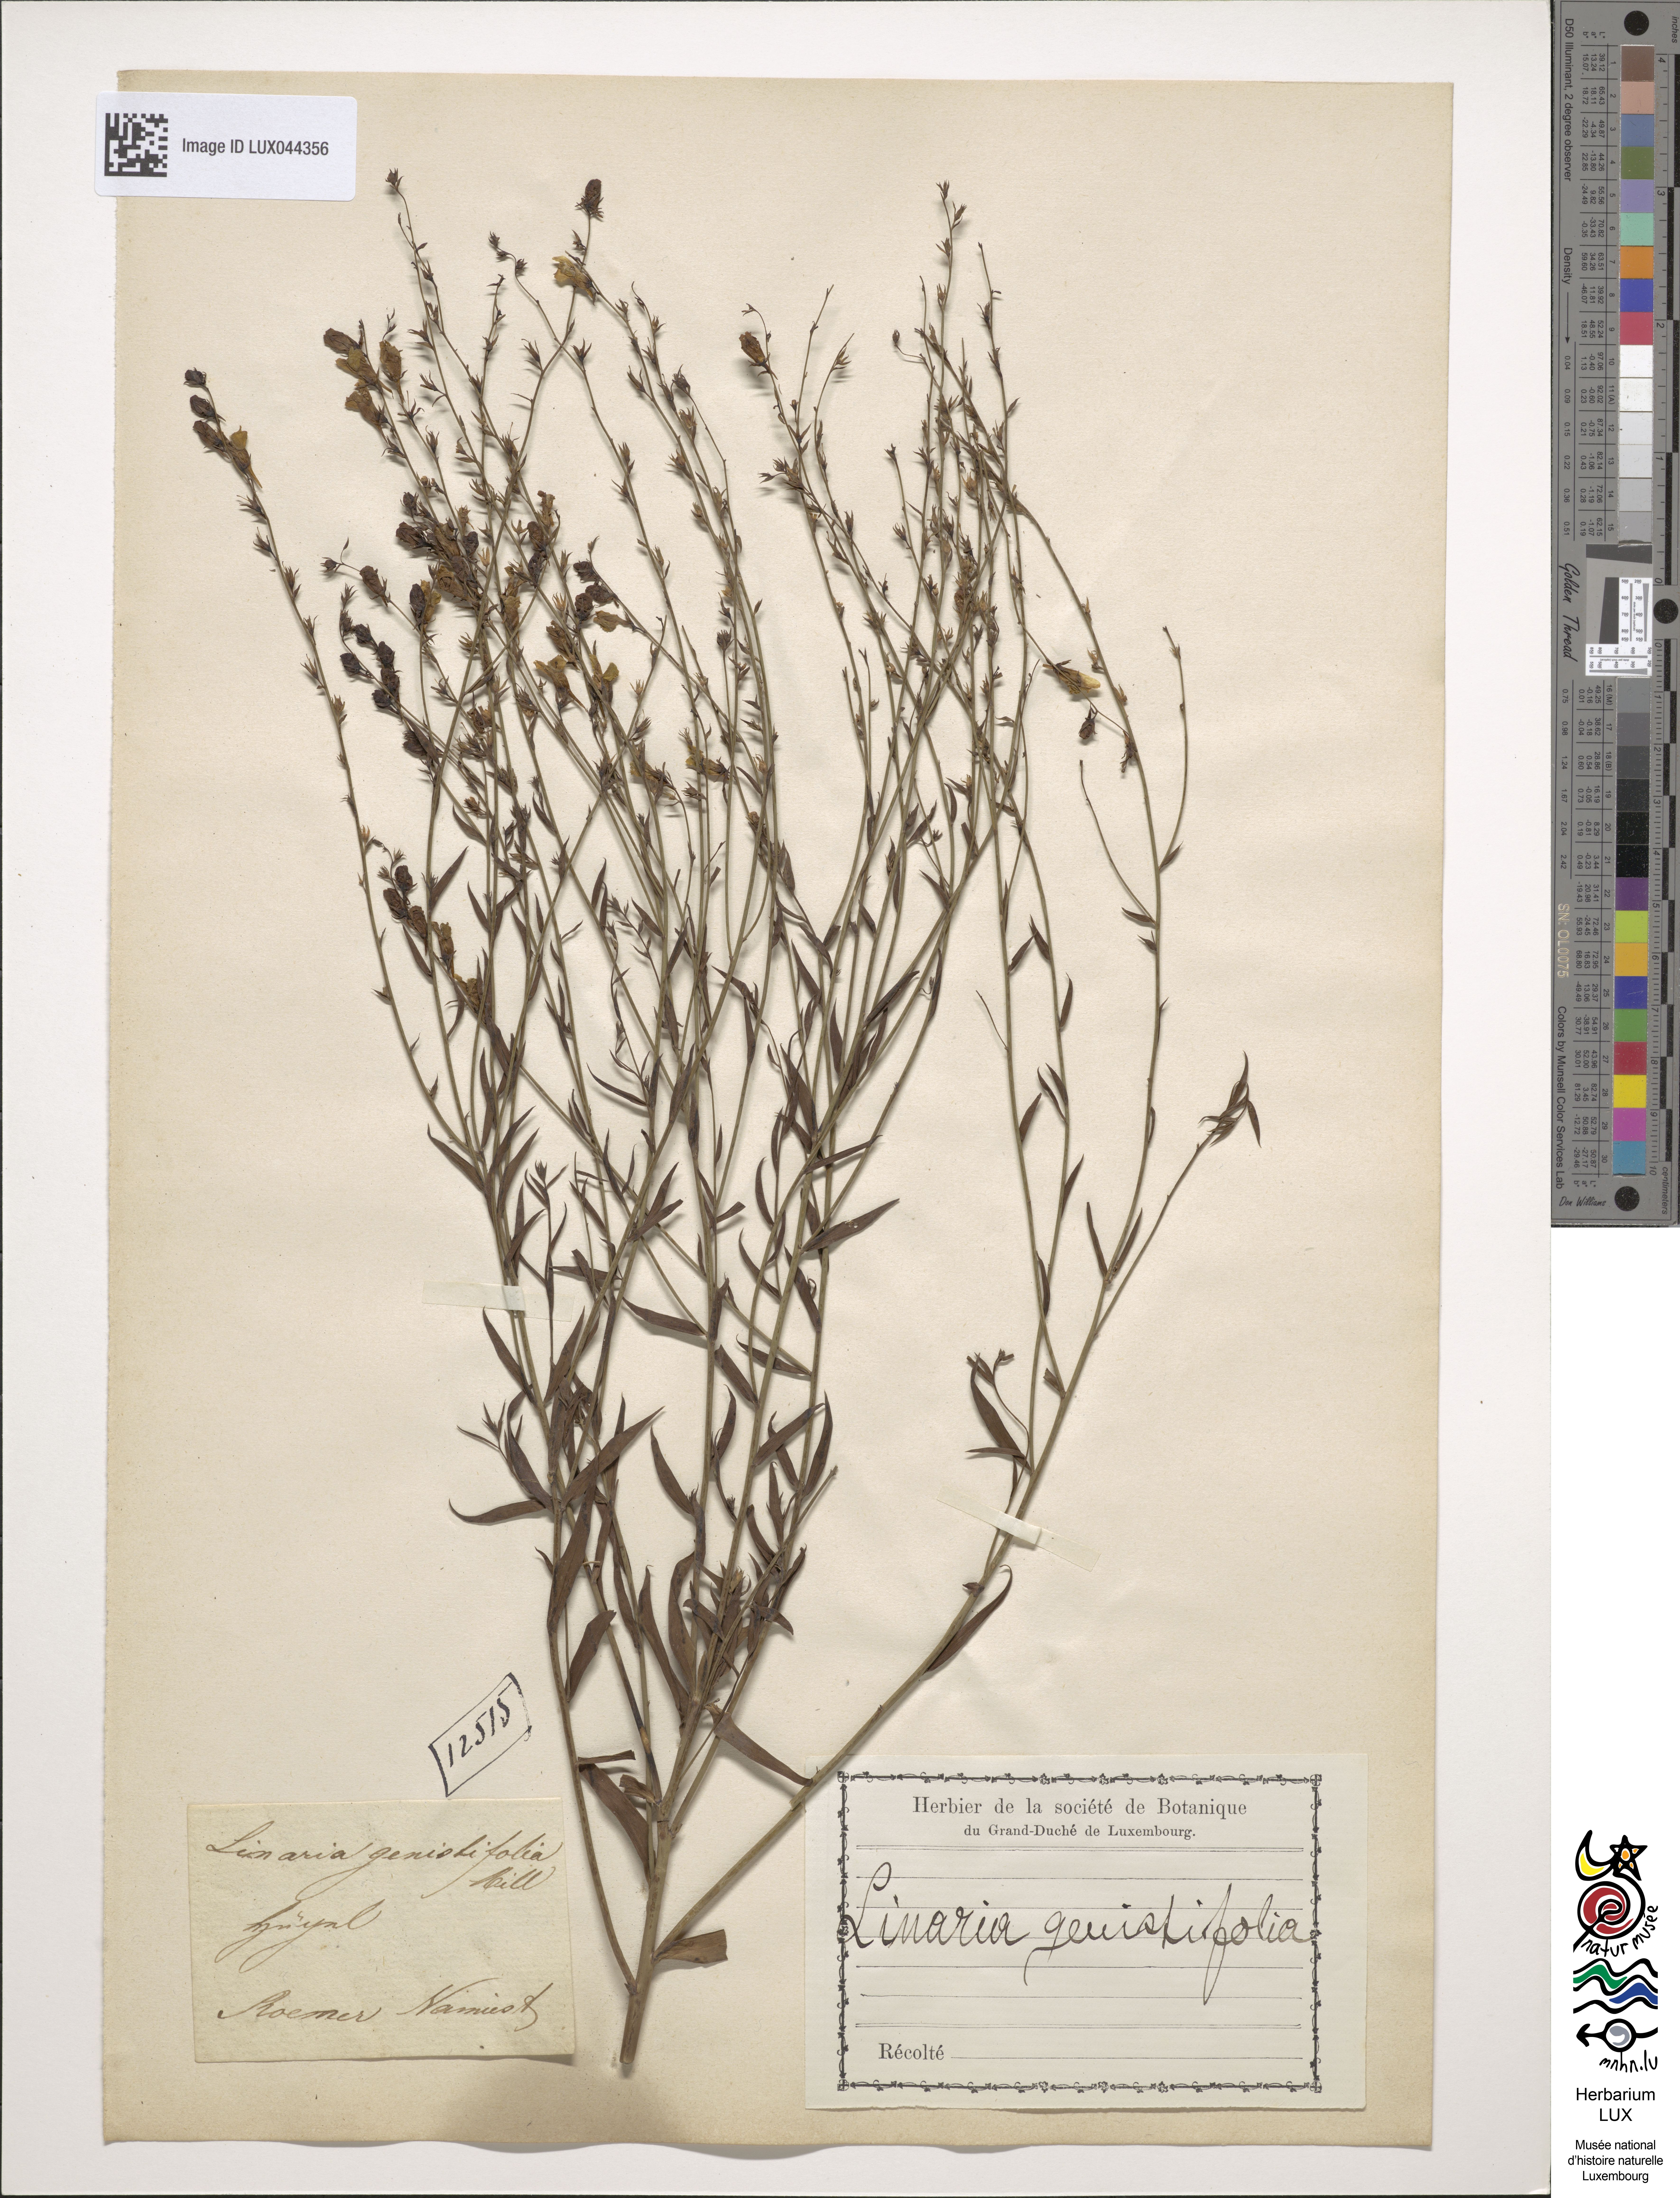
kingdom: Plantae
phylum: Tracheophyta
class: Magnoliopsida
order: Lamiales
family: Plantaginaceae
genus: Linaria
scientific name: Linaria genistifolia
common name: Broomleaf toadflax
